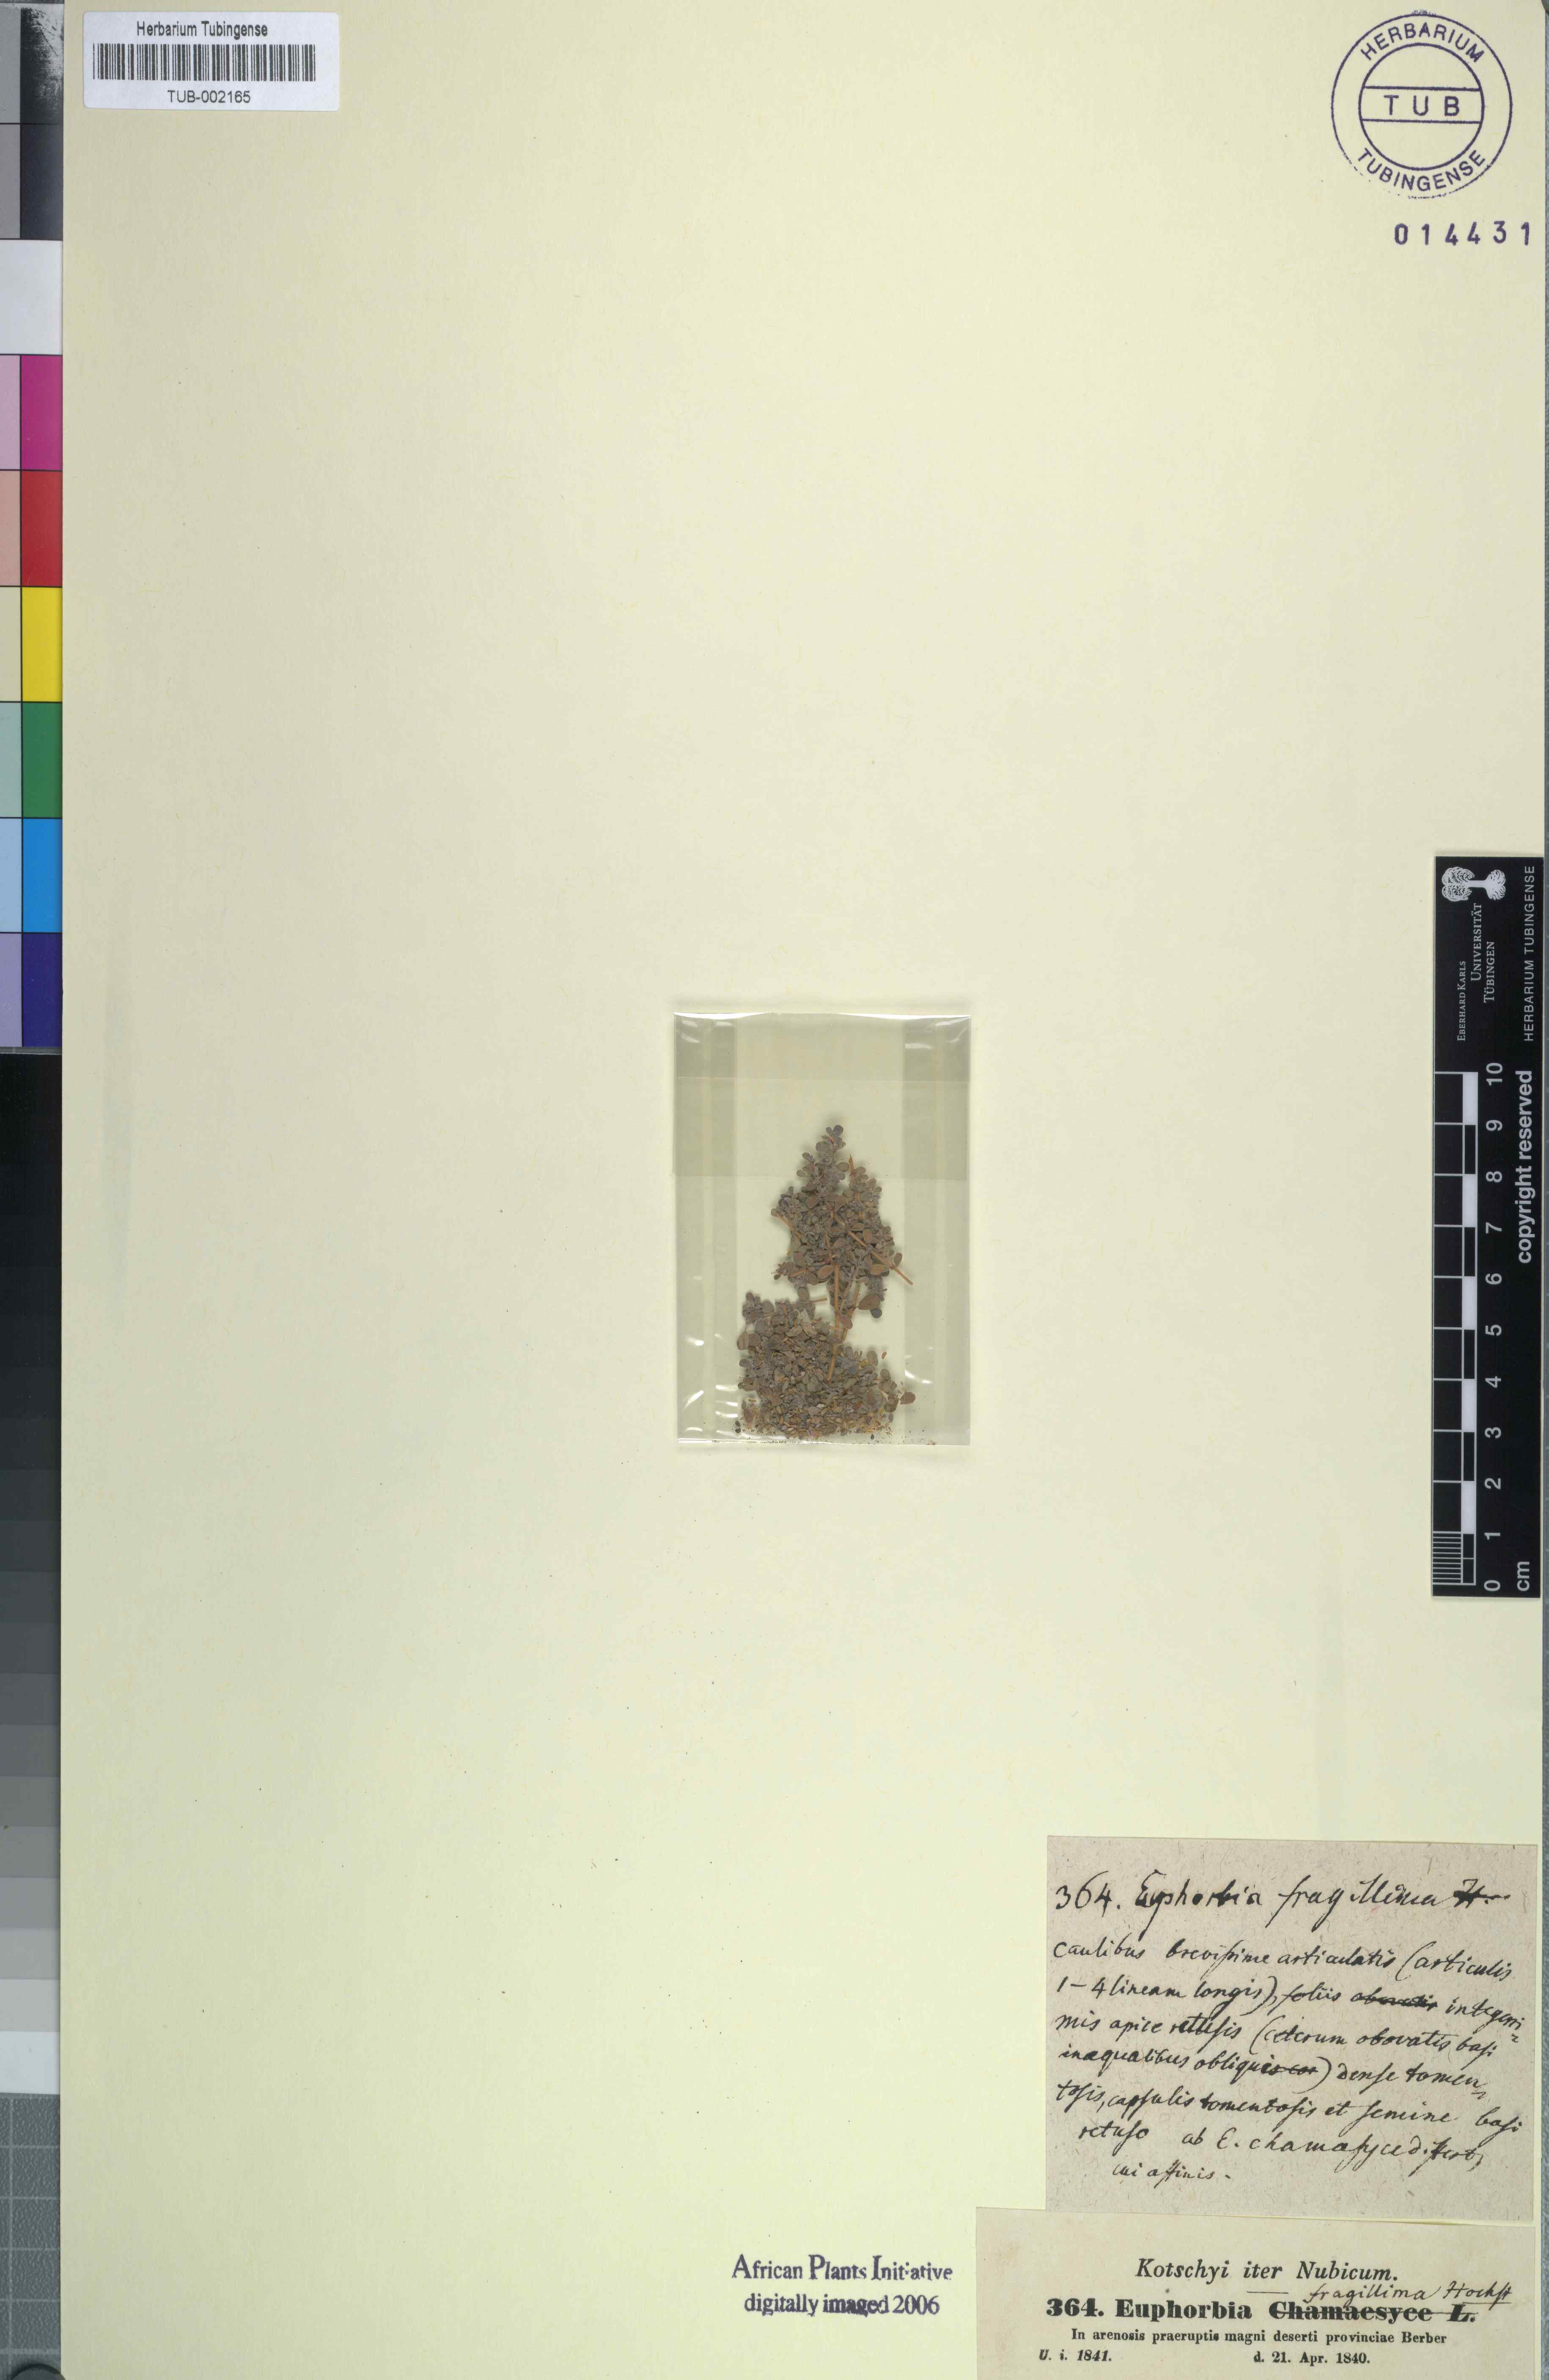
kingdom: Plantae
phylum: Tracheophyta
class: Magnoliopsida
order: Malpighiales
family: Euphorbiaceae
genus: Euphorbia
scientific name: Euphorbia granulata
